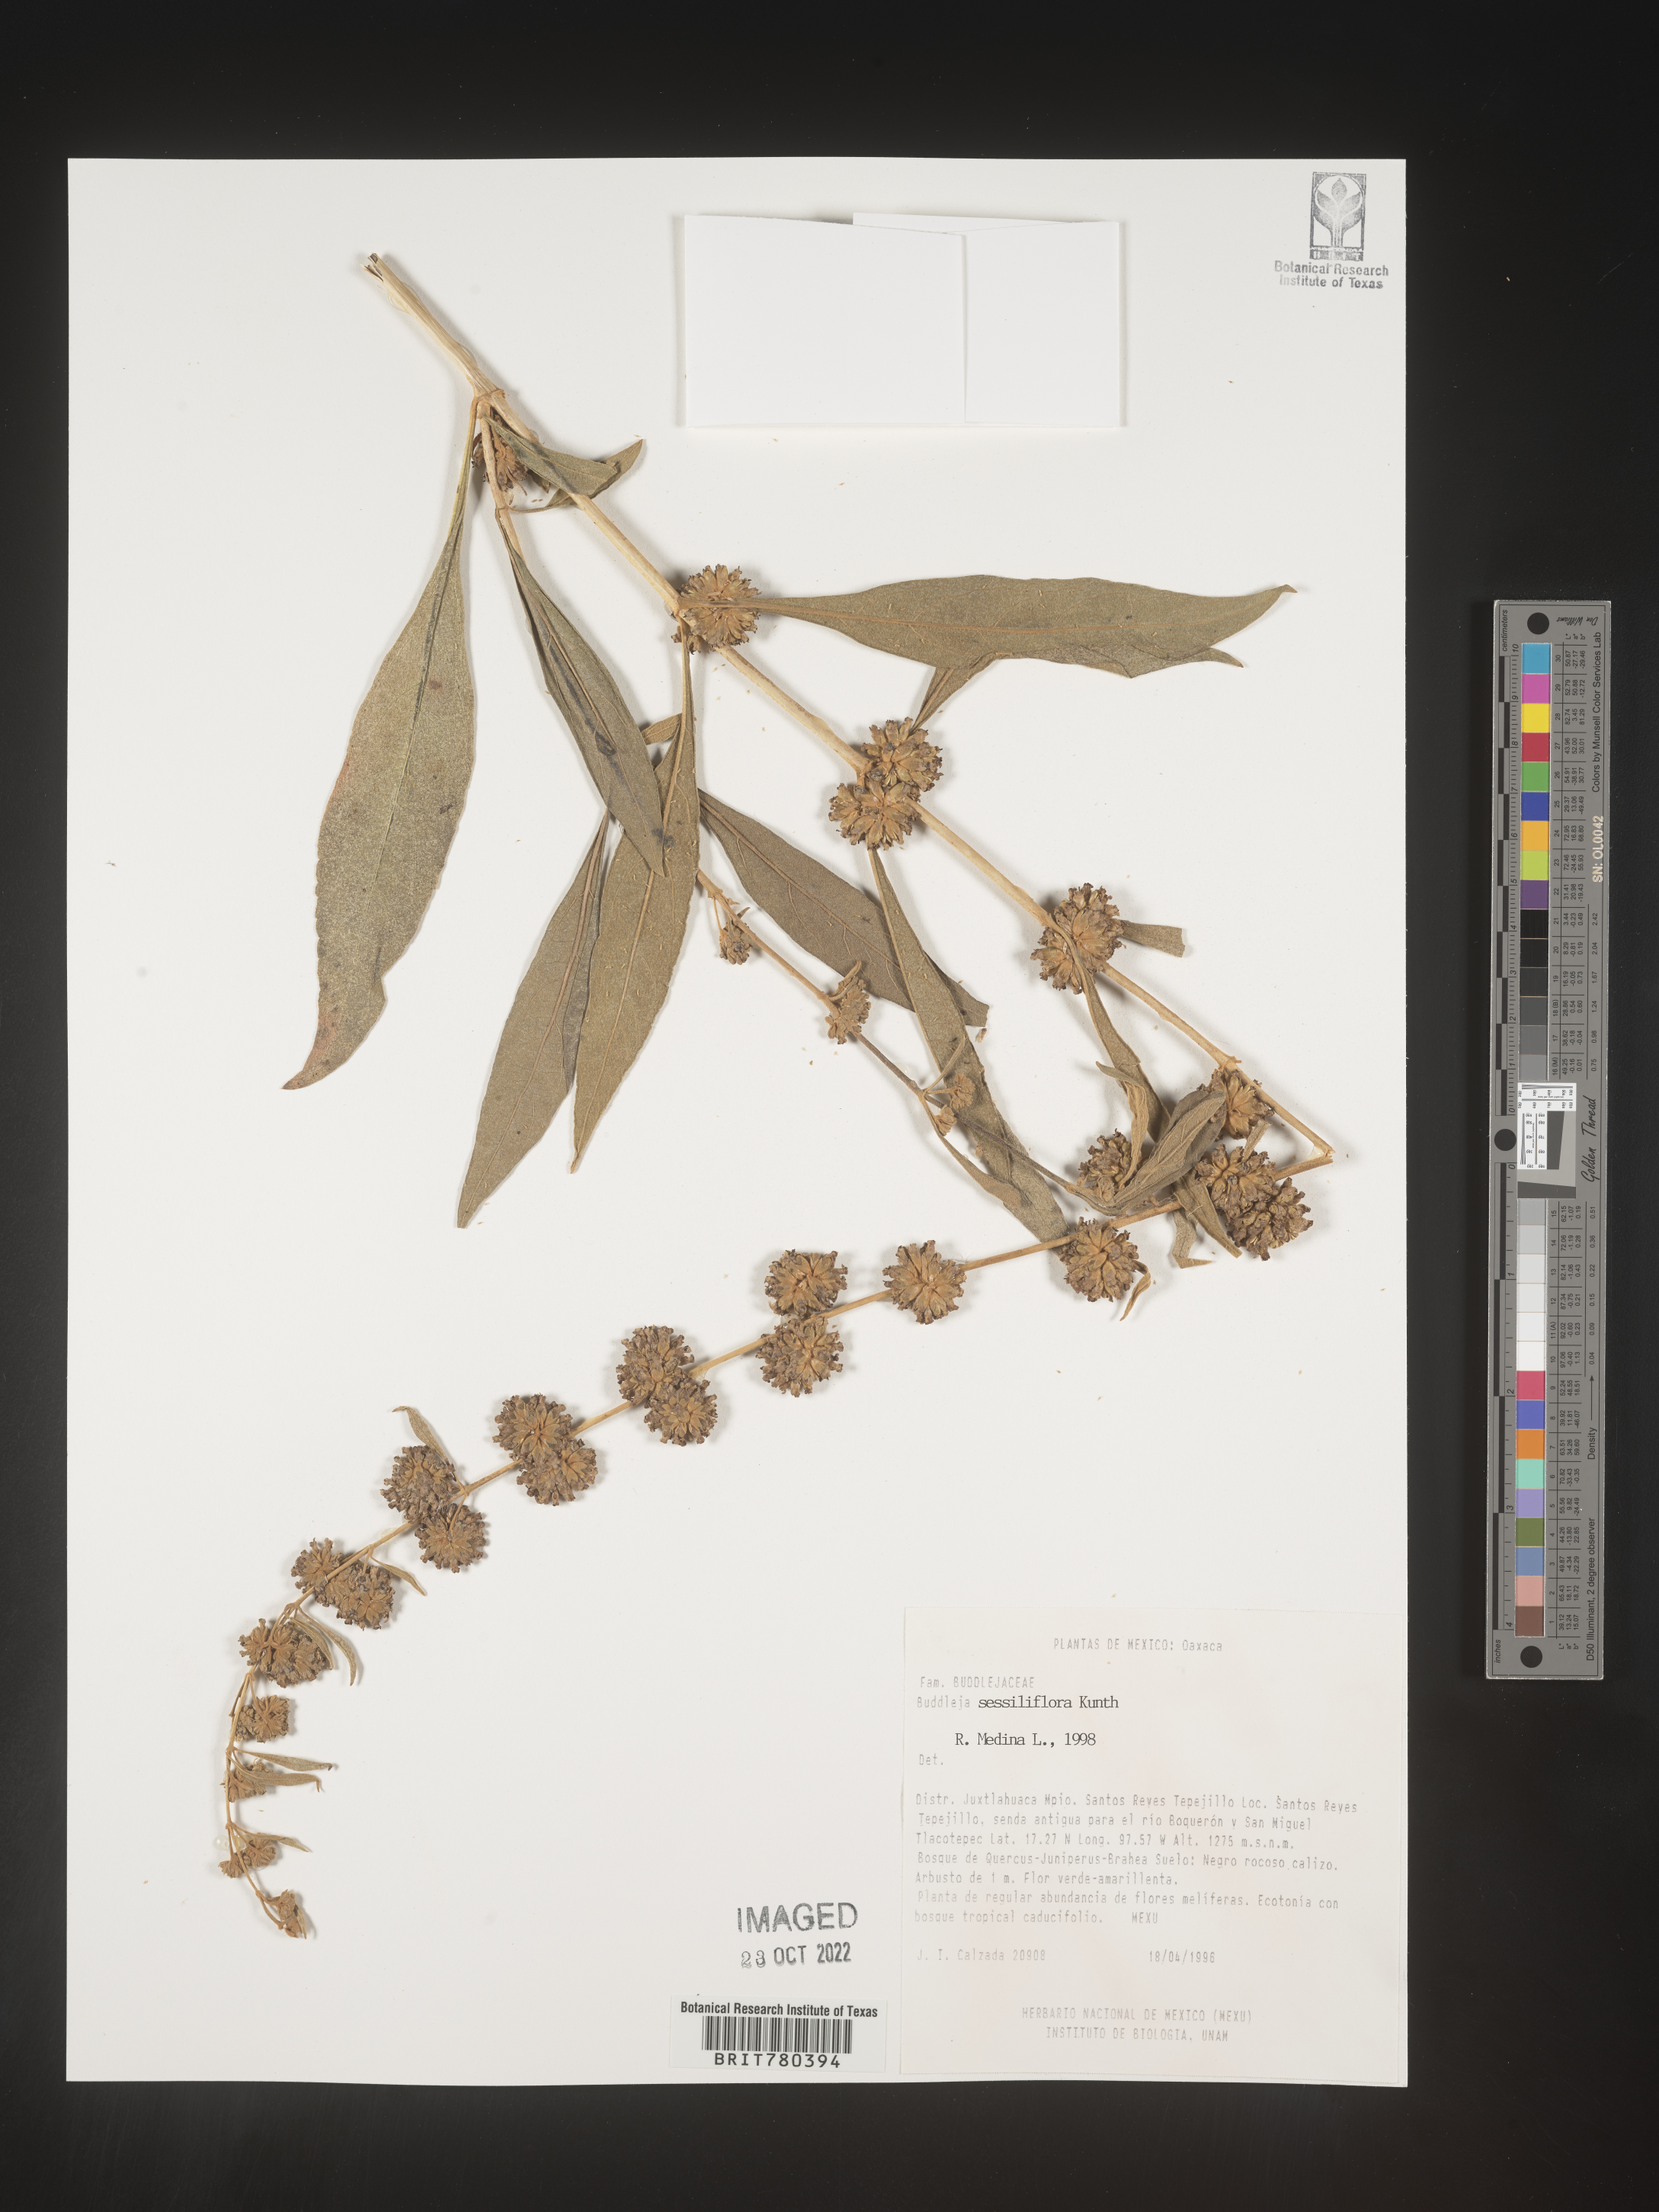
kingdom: Plantae
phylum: Tracheophyta
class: Magnoliopsida
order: Lamiales
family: Scrophulariaceae
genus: Buddleja
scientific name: Buddleja
